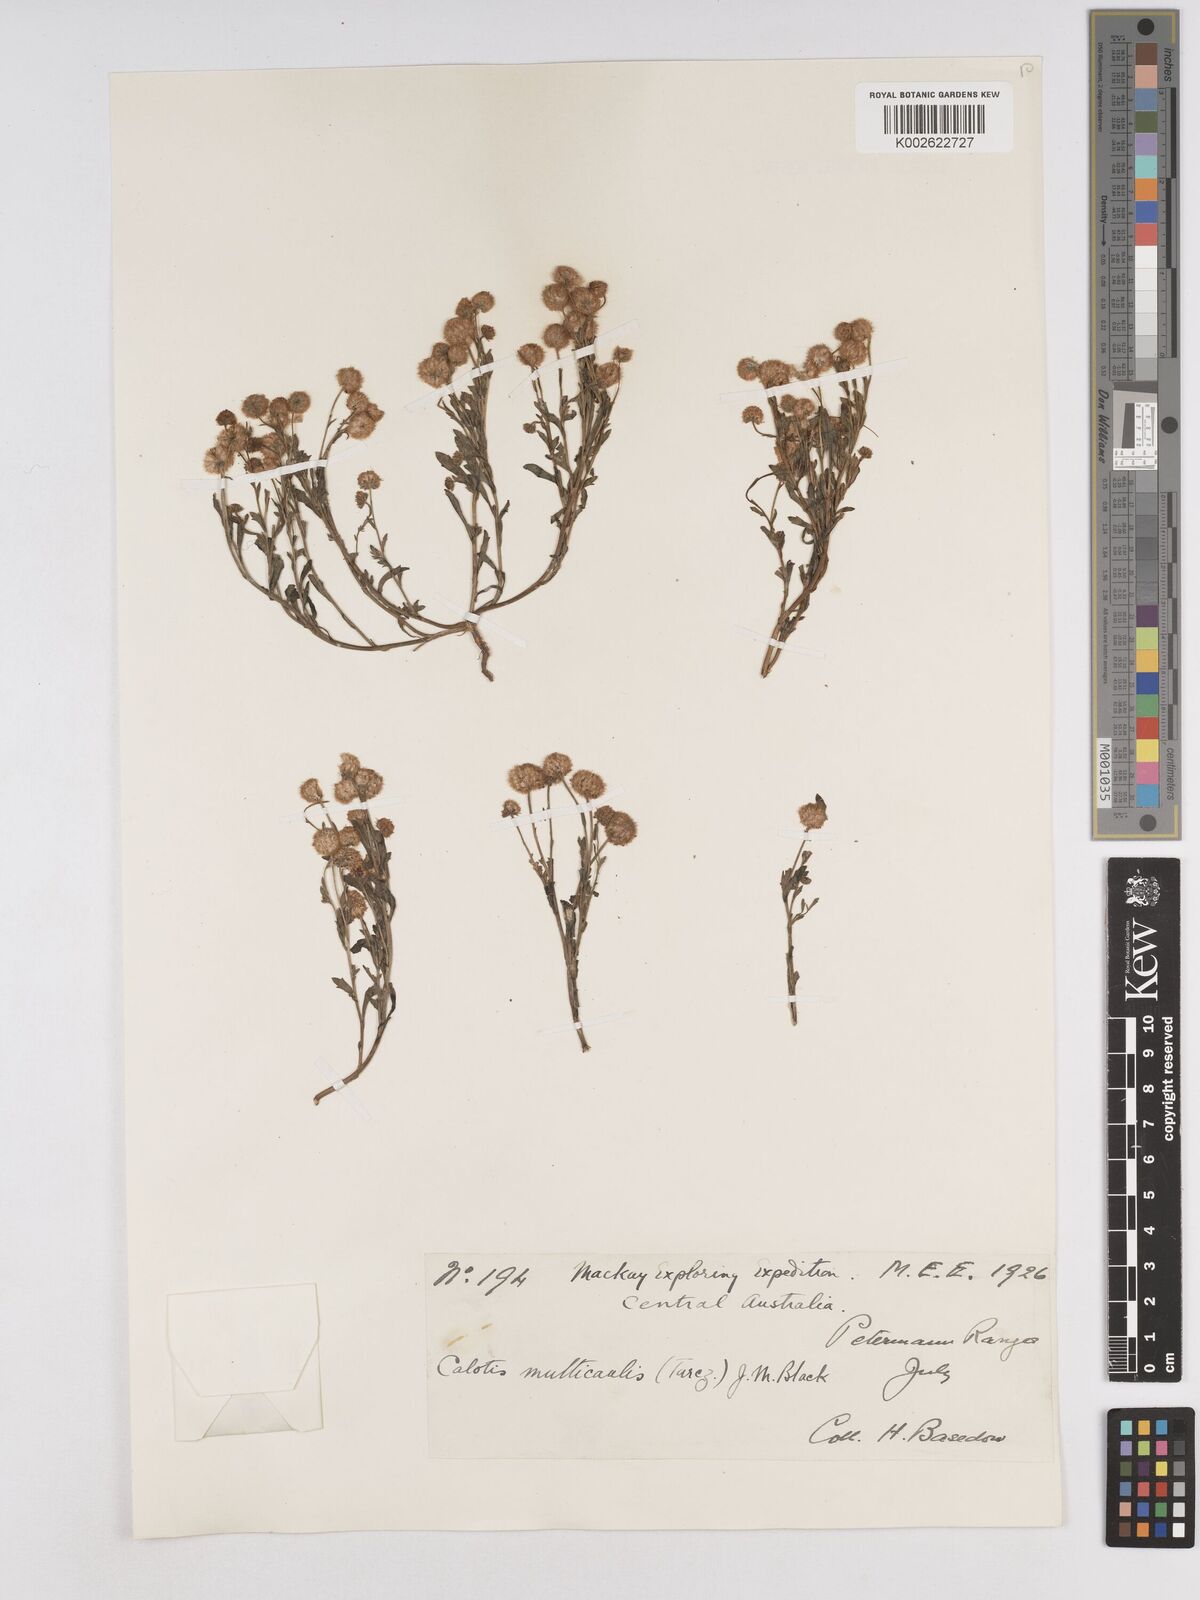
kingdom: Plantae
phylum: Tracheophyta
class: Magnoliopsida
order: Asterales
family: Asteraceae
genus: Calotis
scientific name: Calotis multicaulis
